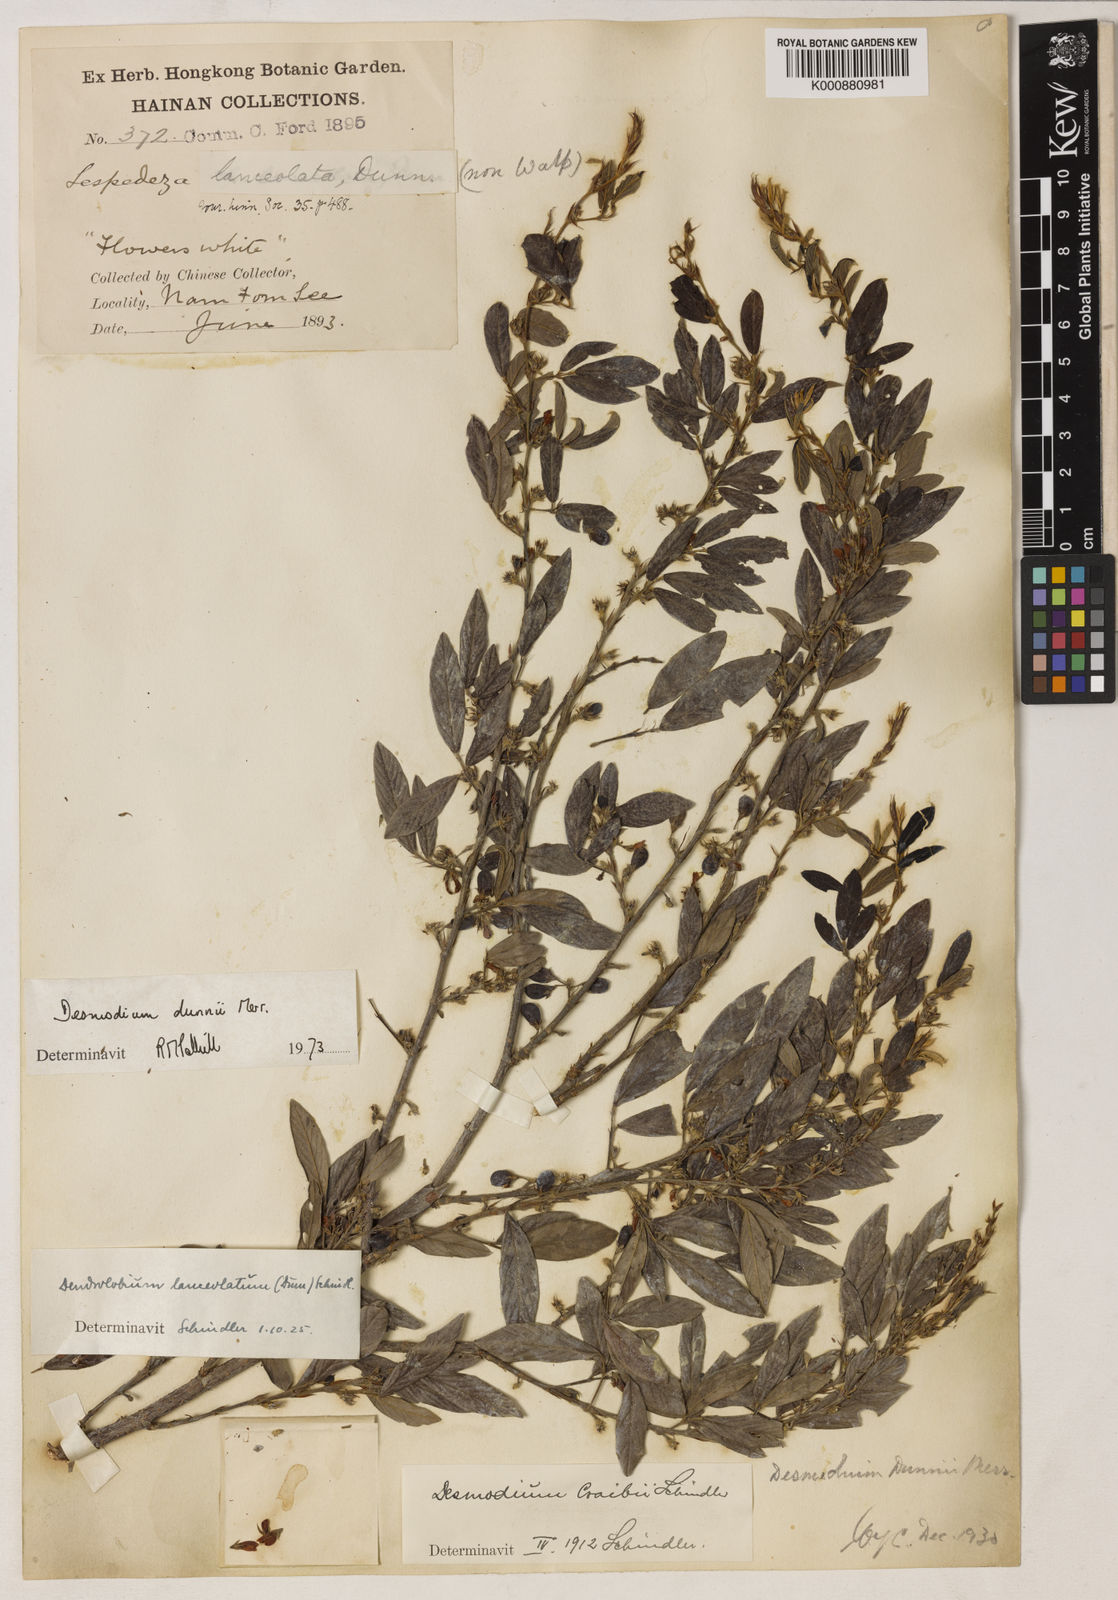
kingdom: Plantae
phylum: Tracheophyta
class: Magnoliopsida
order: Fabales
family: Fabaceae
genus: Dendrolobium
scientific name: Dendrolobium lanceolatum
